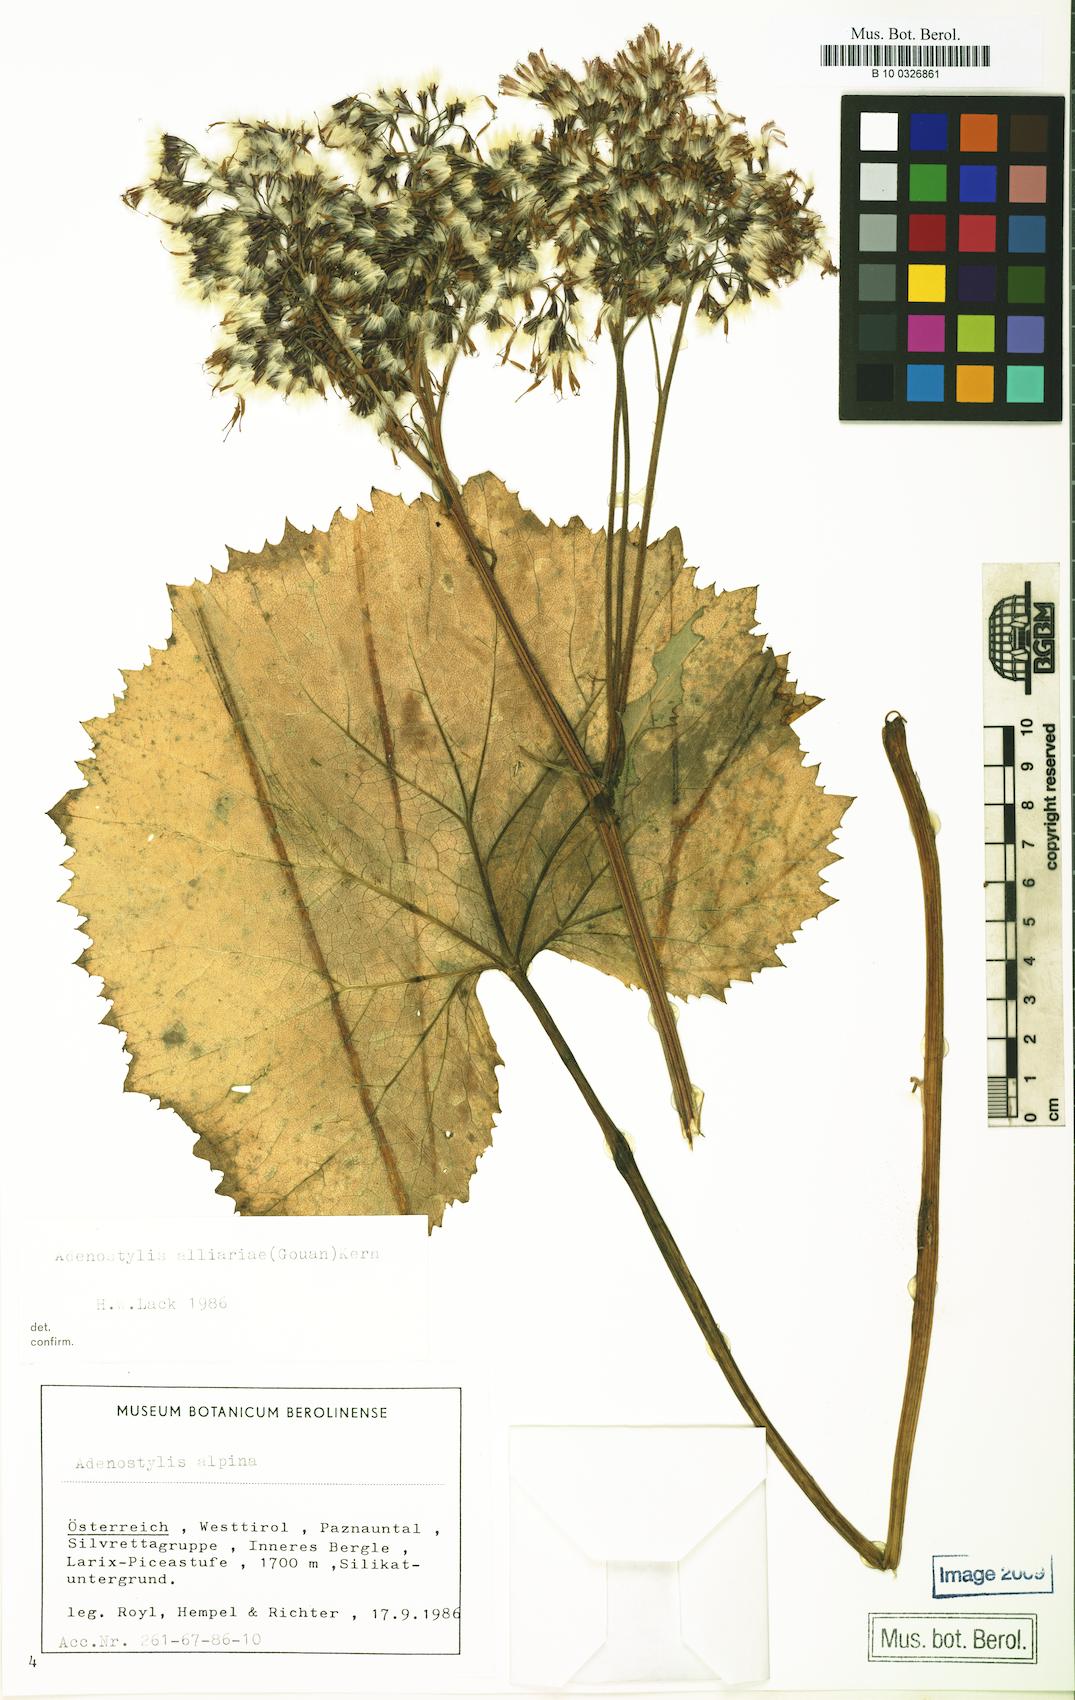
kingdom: Plantae
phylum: Tracheophyta
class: Magnoliopsida
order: Asterales
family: Asteraceae
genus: Adenostyles
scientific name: Adenostyles alliariae
